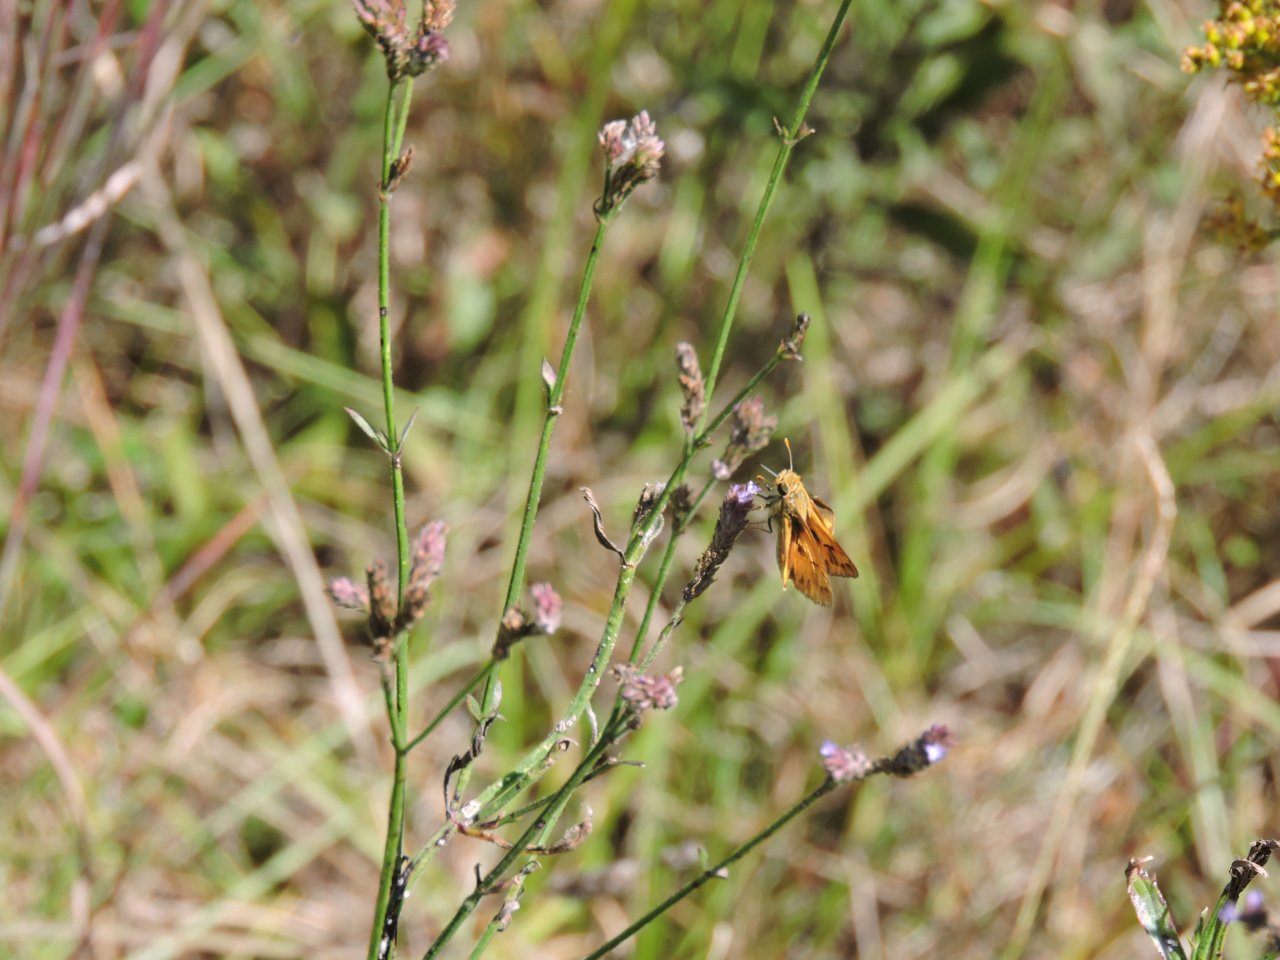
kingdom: Animalia
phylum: Arthropoda
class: Insecta
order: Lepidoptera
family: Hesperiidae
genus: Hylephila
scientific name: Hylephila phyleus
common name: Fiery Skipper
